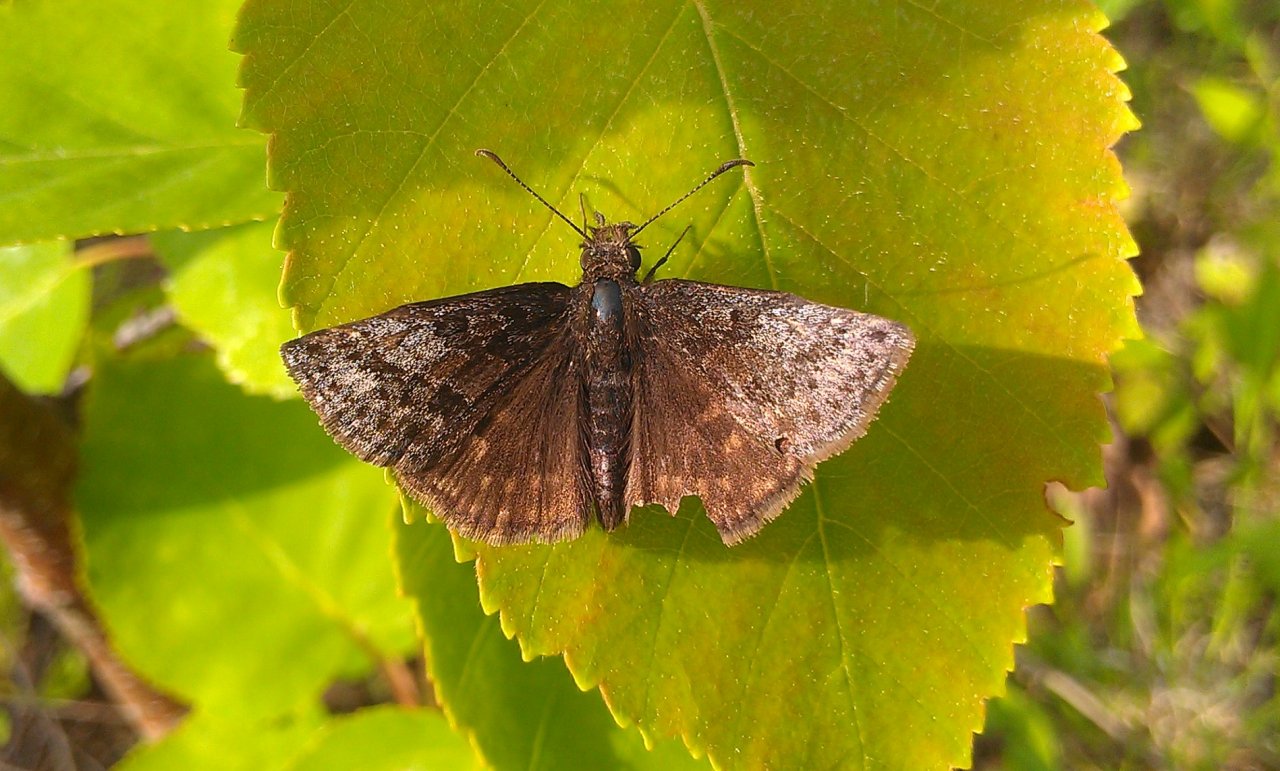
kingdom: Animalia
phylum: Arthropoda
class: Insecta
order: Lepidoptera
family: Hesperiidae
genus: Erynnis
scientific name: Erynnis icelus
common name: Dreamy Duskywing
